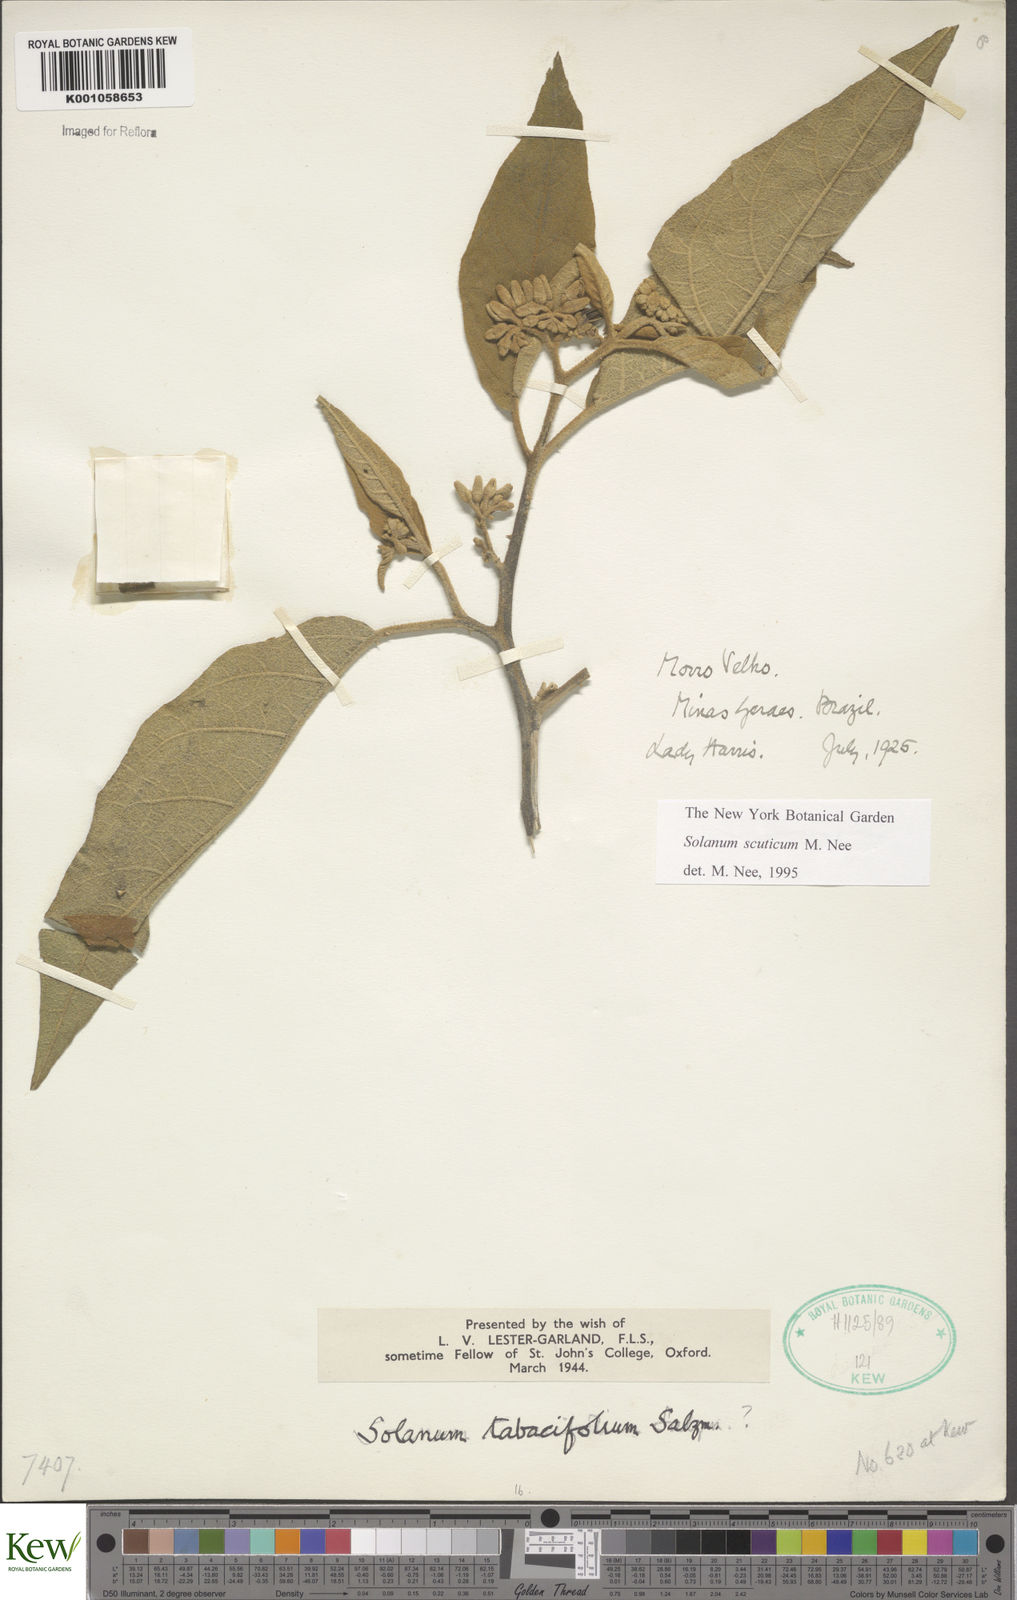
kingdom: Plantae
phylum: Tracheophyta
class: Magnoliopsida
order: Solanales
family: Solanaceae
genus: Solanum
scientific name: Solanum scuticum
